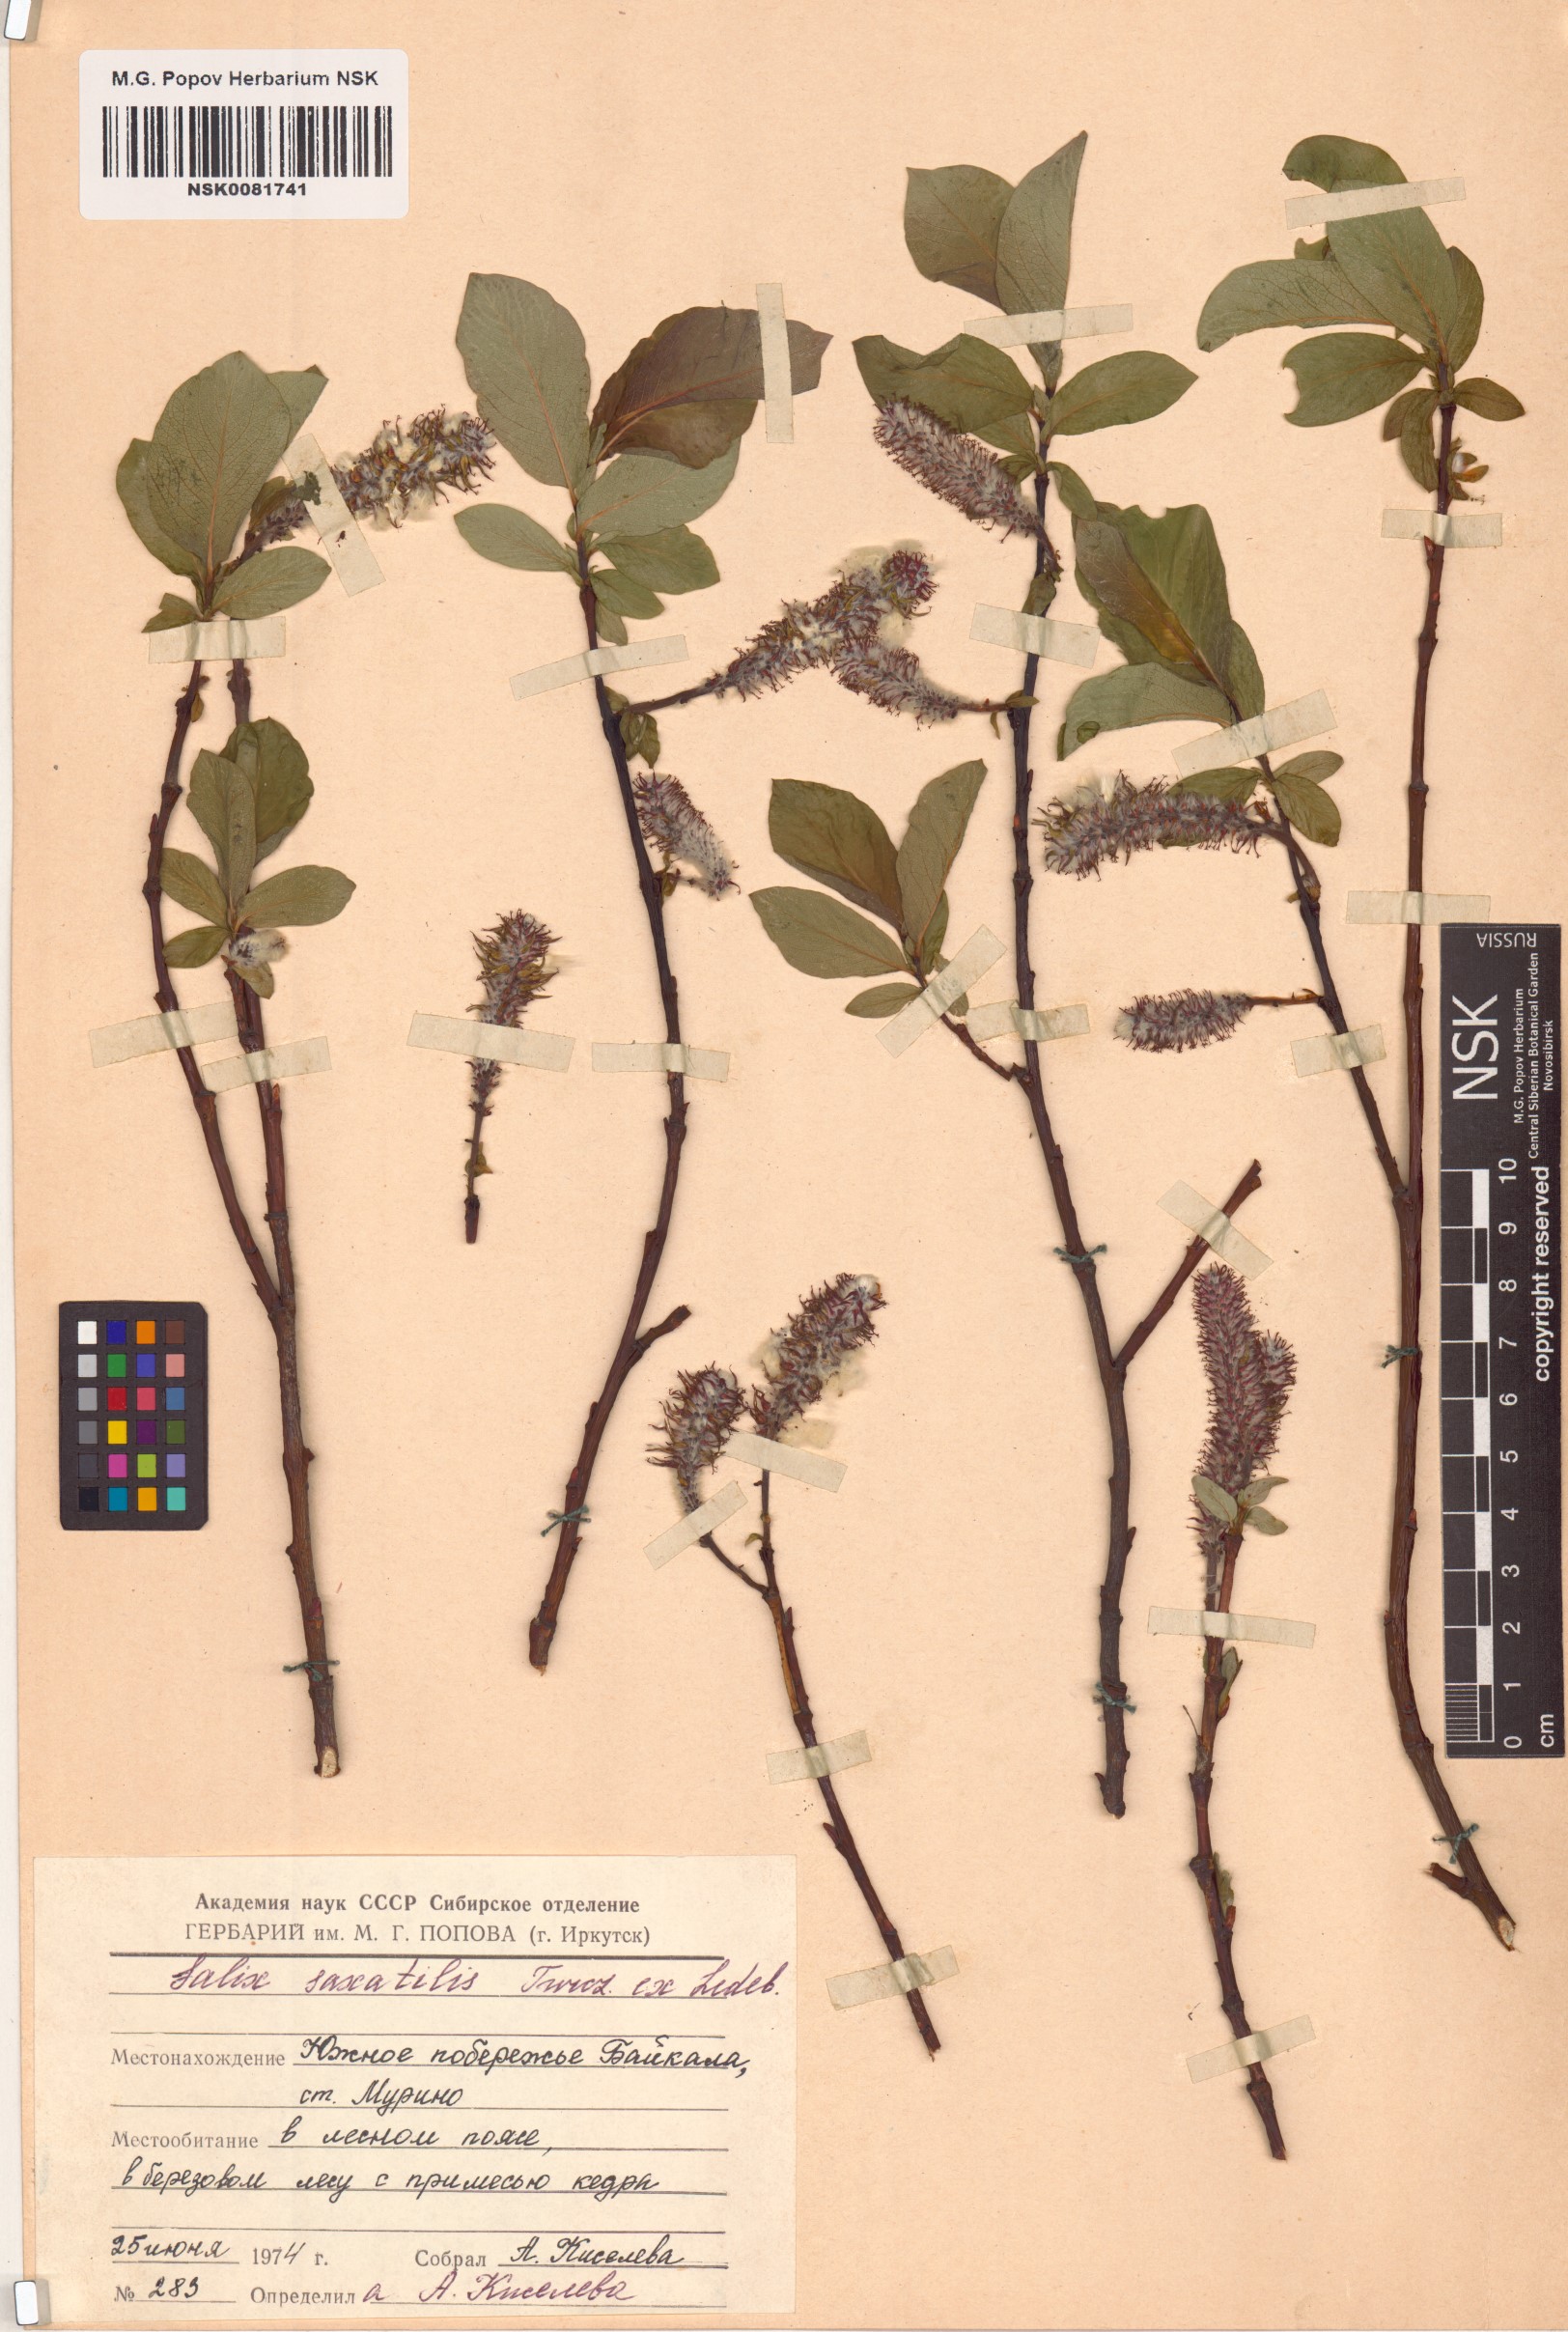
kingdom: Plantae
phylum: Tracheophyta
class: Magnoliopsida
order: Malpighiales
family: Salicaceae
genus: Salix
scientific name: Salix saxatilis
